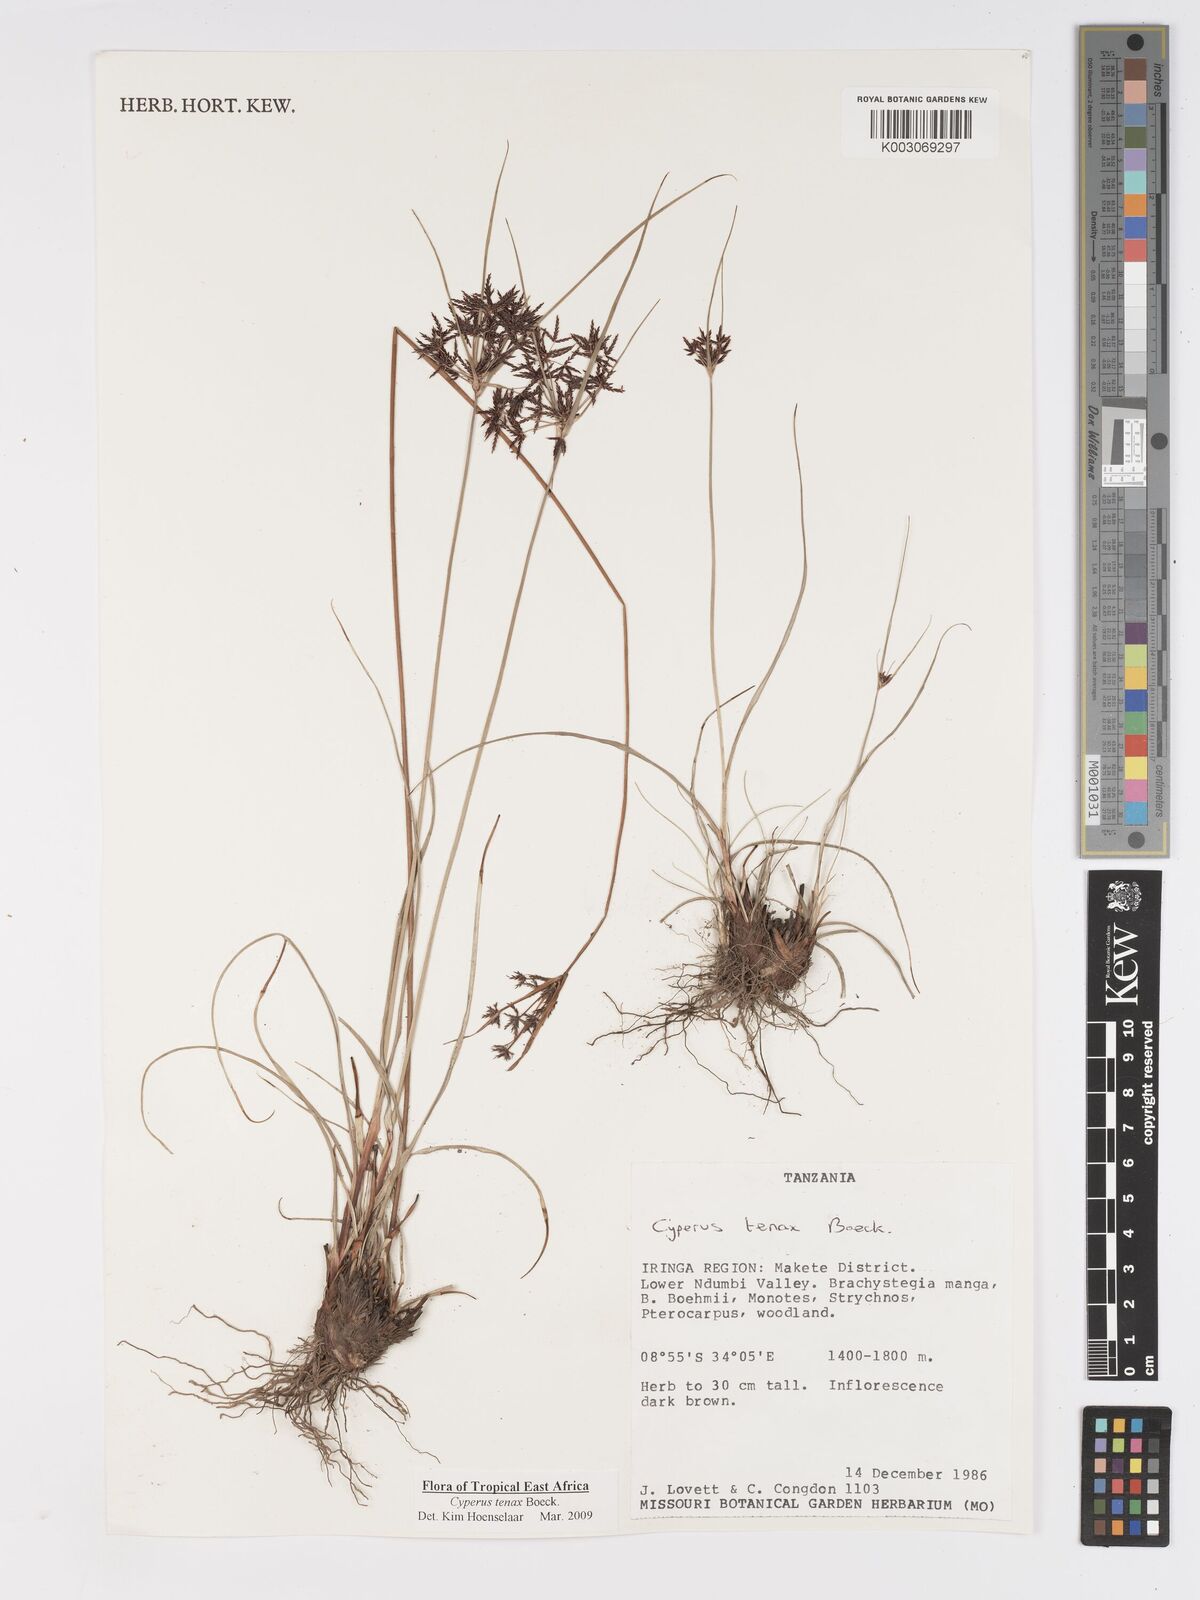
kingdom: Plantae
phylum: Tracheophyta
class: Liliopsida
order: Poales
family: Cyperaceae
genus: Cyperus
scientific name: Cyperus tenax
